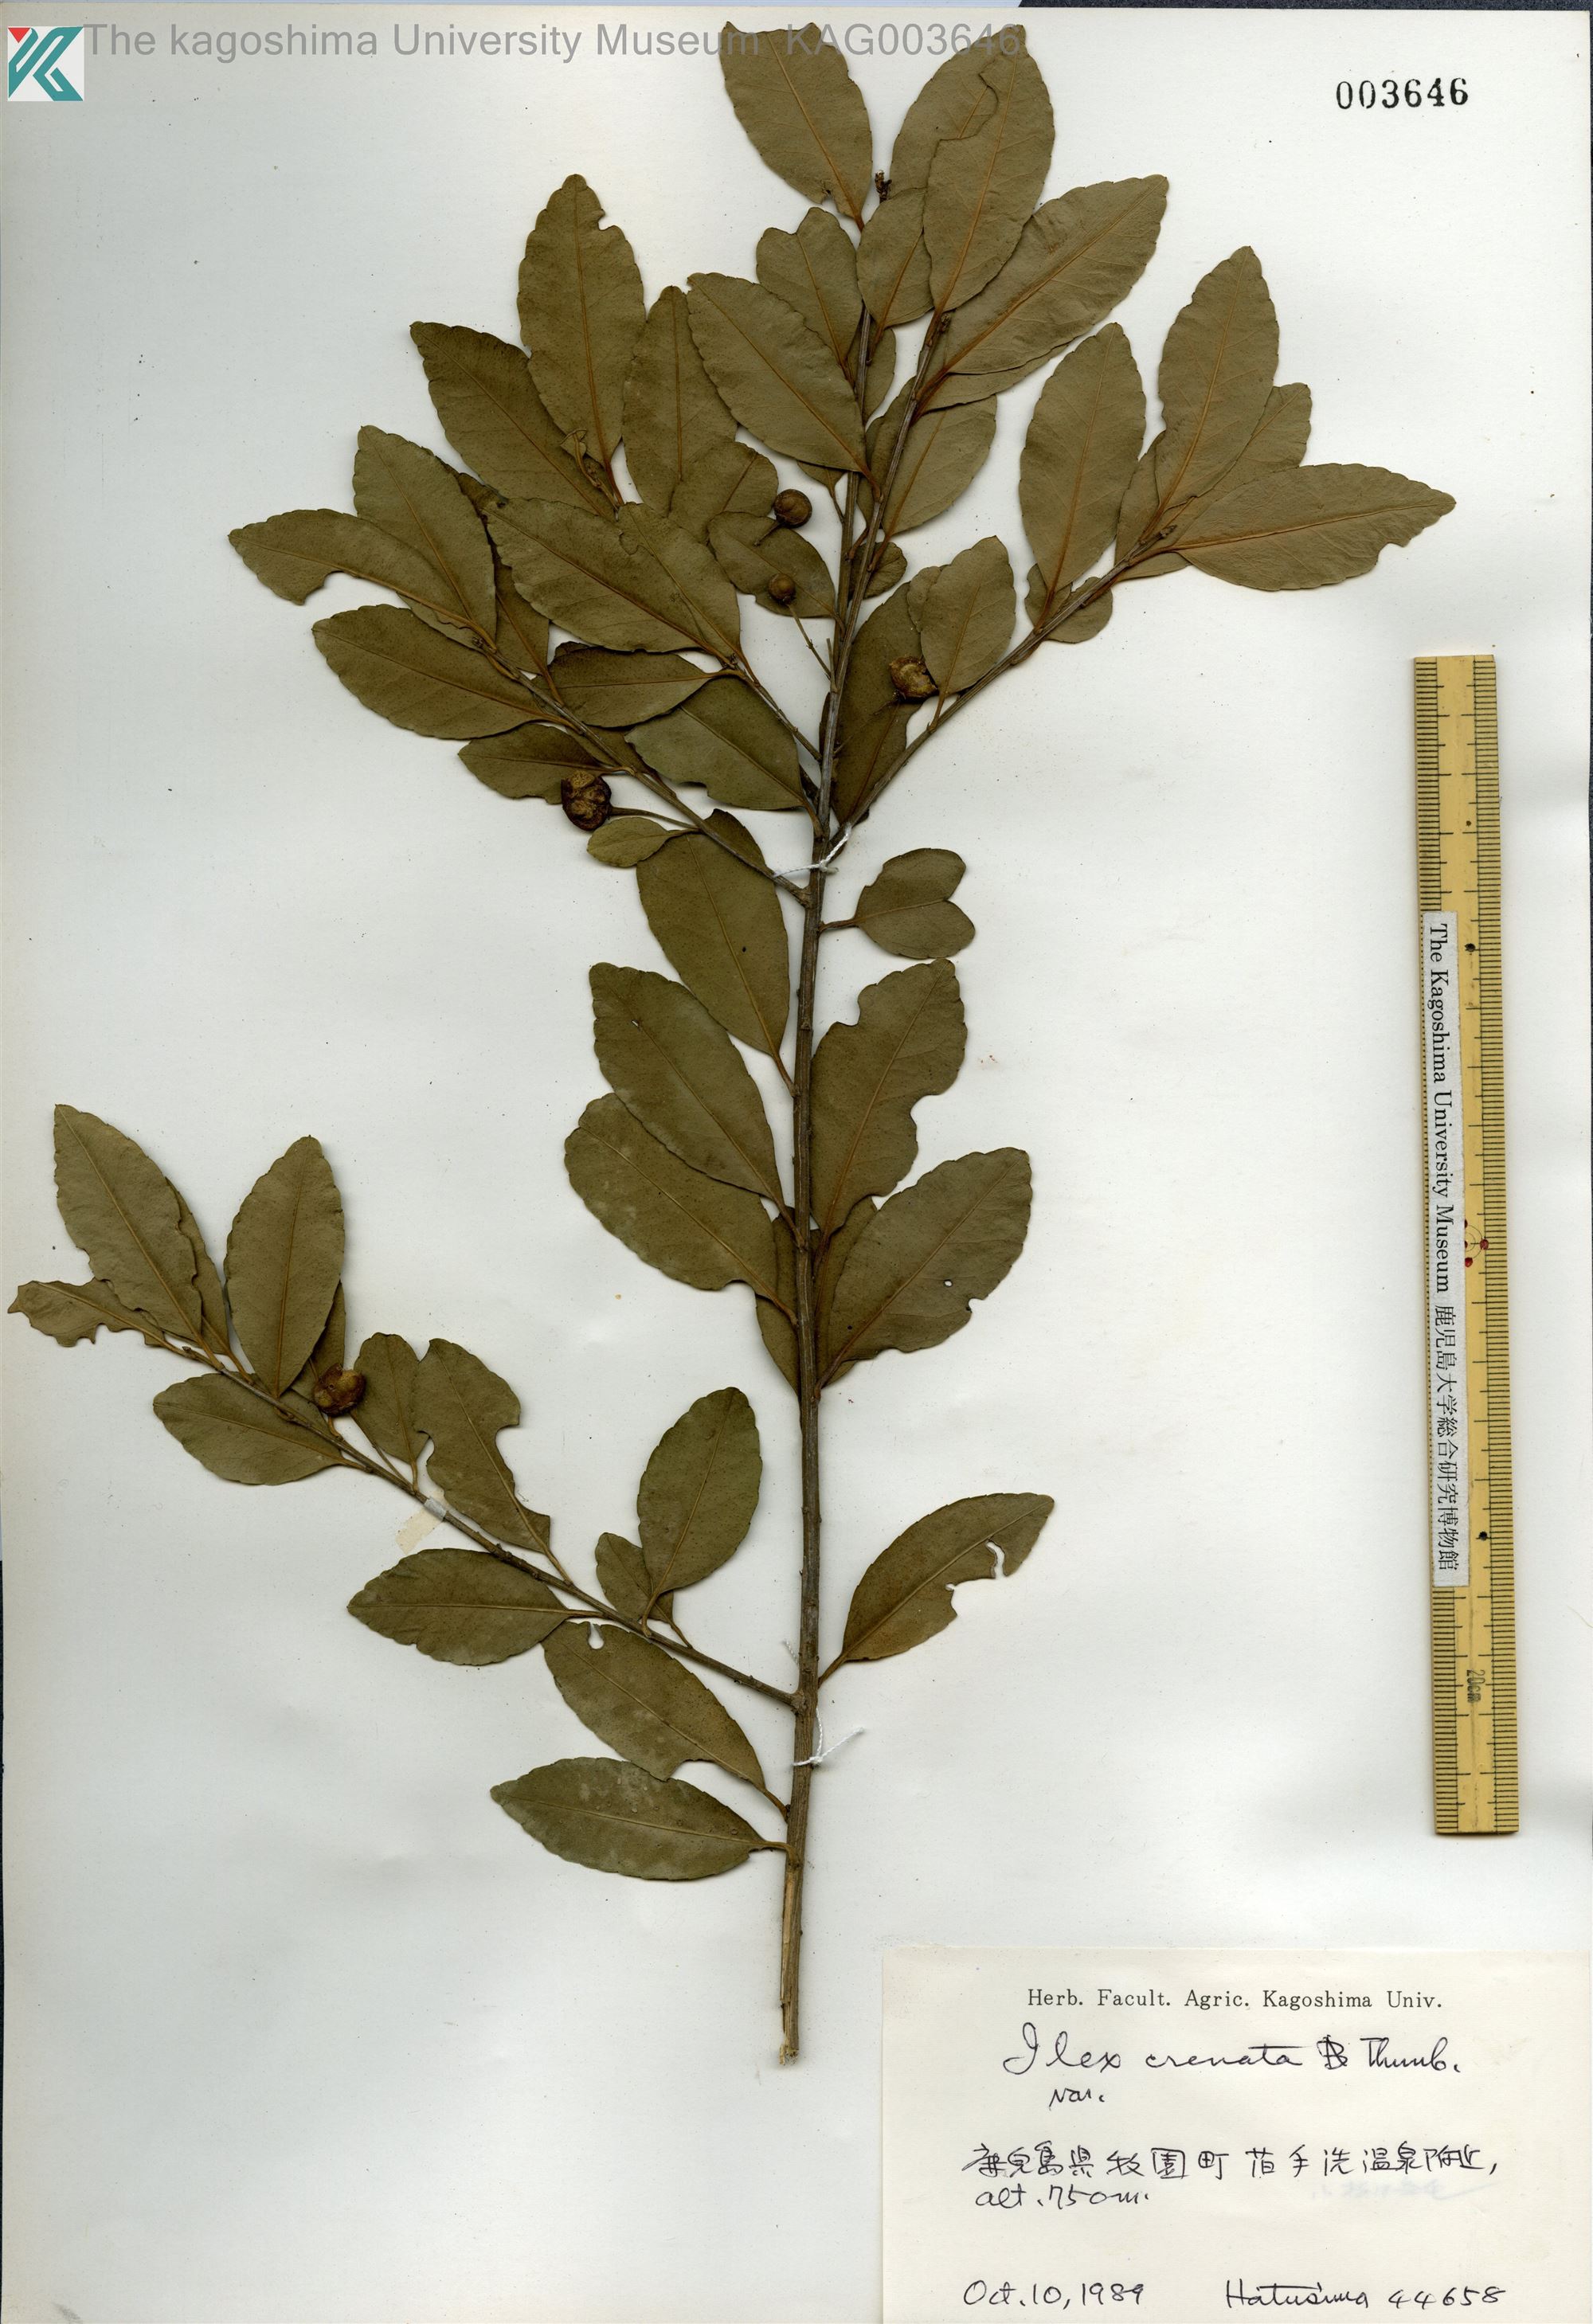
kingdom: Plantae
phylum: Tracheophyta
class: Magnoliopsida
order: Aquifoliales
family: Aquifoliaceae
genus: Ilex
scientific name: Ilex crenata
